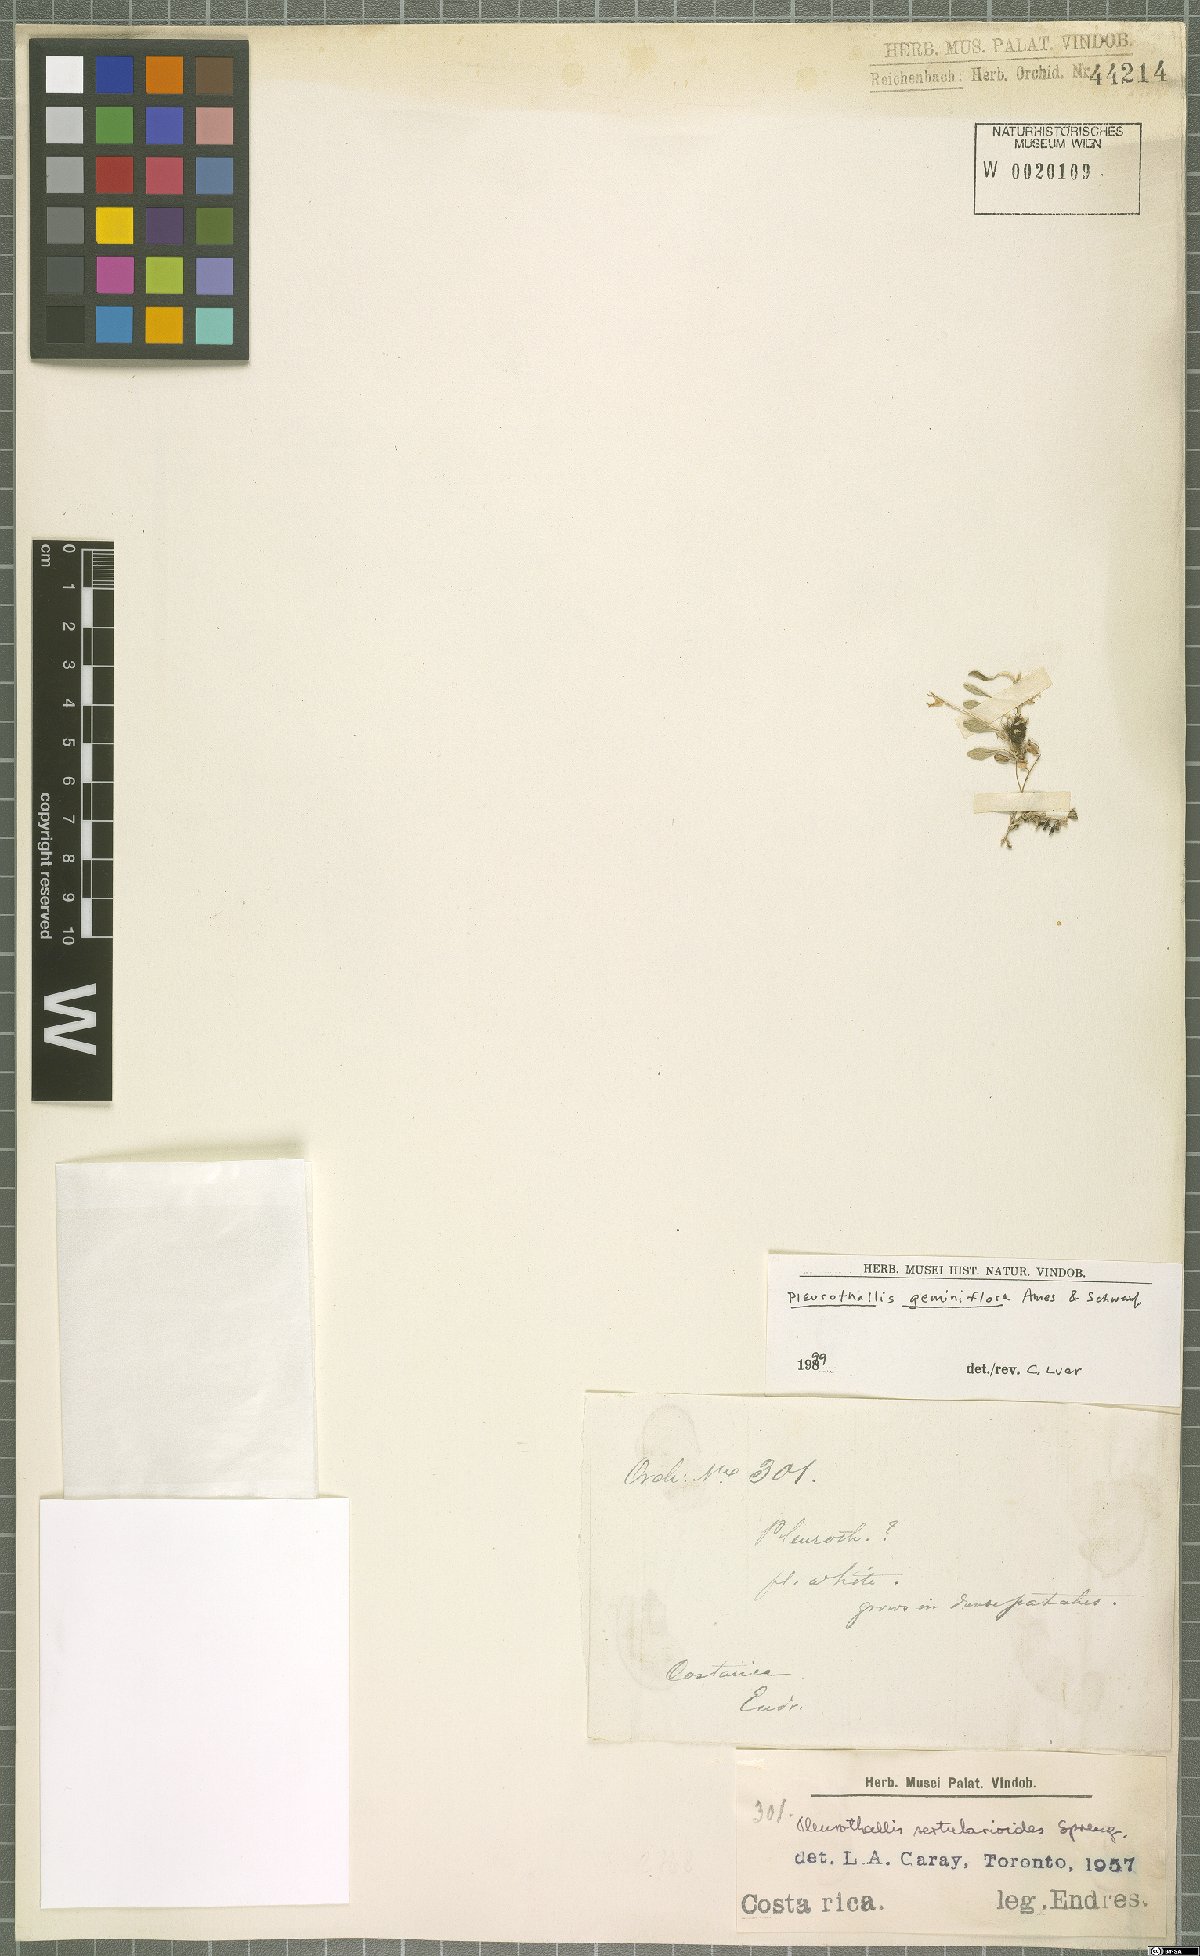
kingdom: Plantae
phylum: Tracheophyta
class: Liliopsida
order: Asparagales
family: Orchidaceae
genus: Specklinia
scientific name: Specklinia calyptrostele
